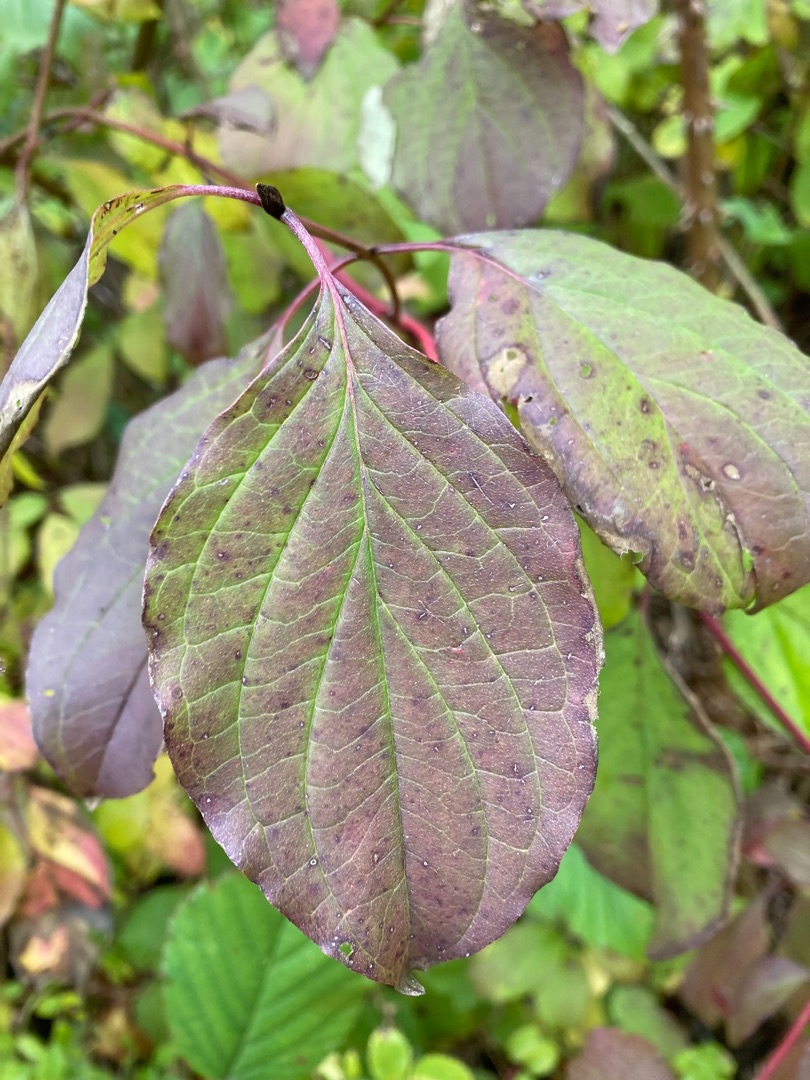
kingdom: Plantae
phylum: Tracheophyta
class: Magnoliopsida
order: Cornales
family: Cornaceae
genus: Cornus
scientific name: Cornus sanguinea
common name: Rød kornel
